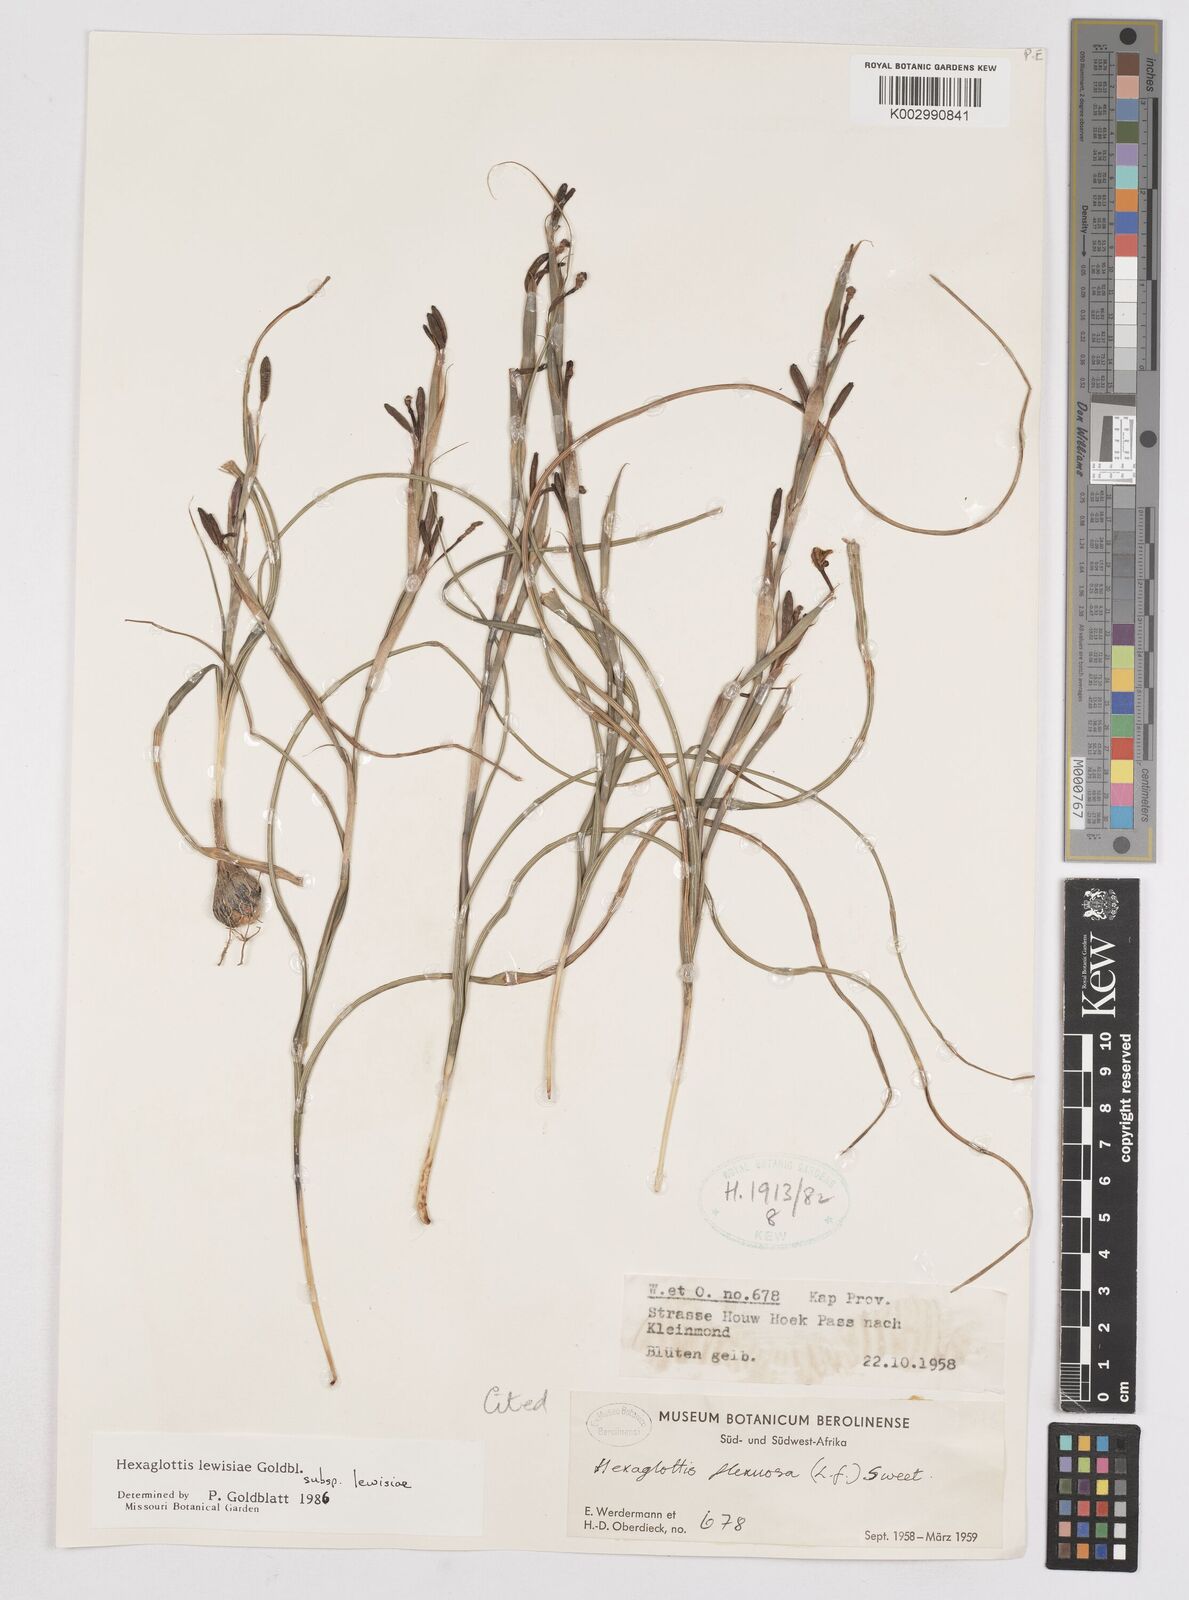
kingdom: Plantae
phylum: Tracheophyta
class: Liliopsida
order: Asparagales
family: Iridaceae
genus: Moraea
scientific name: Moraea lewisiae
